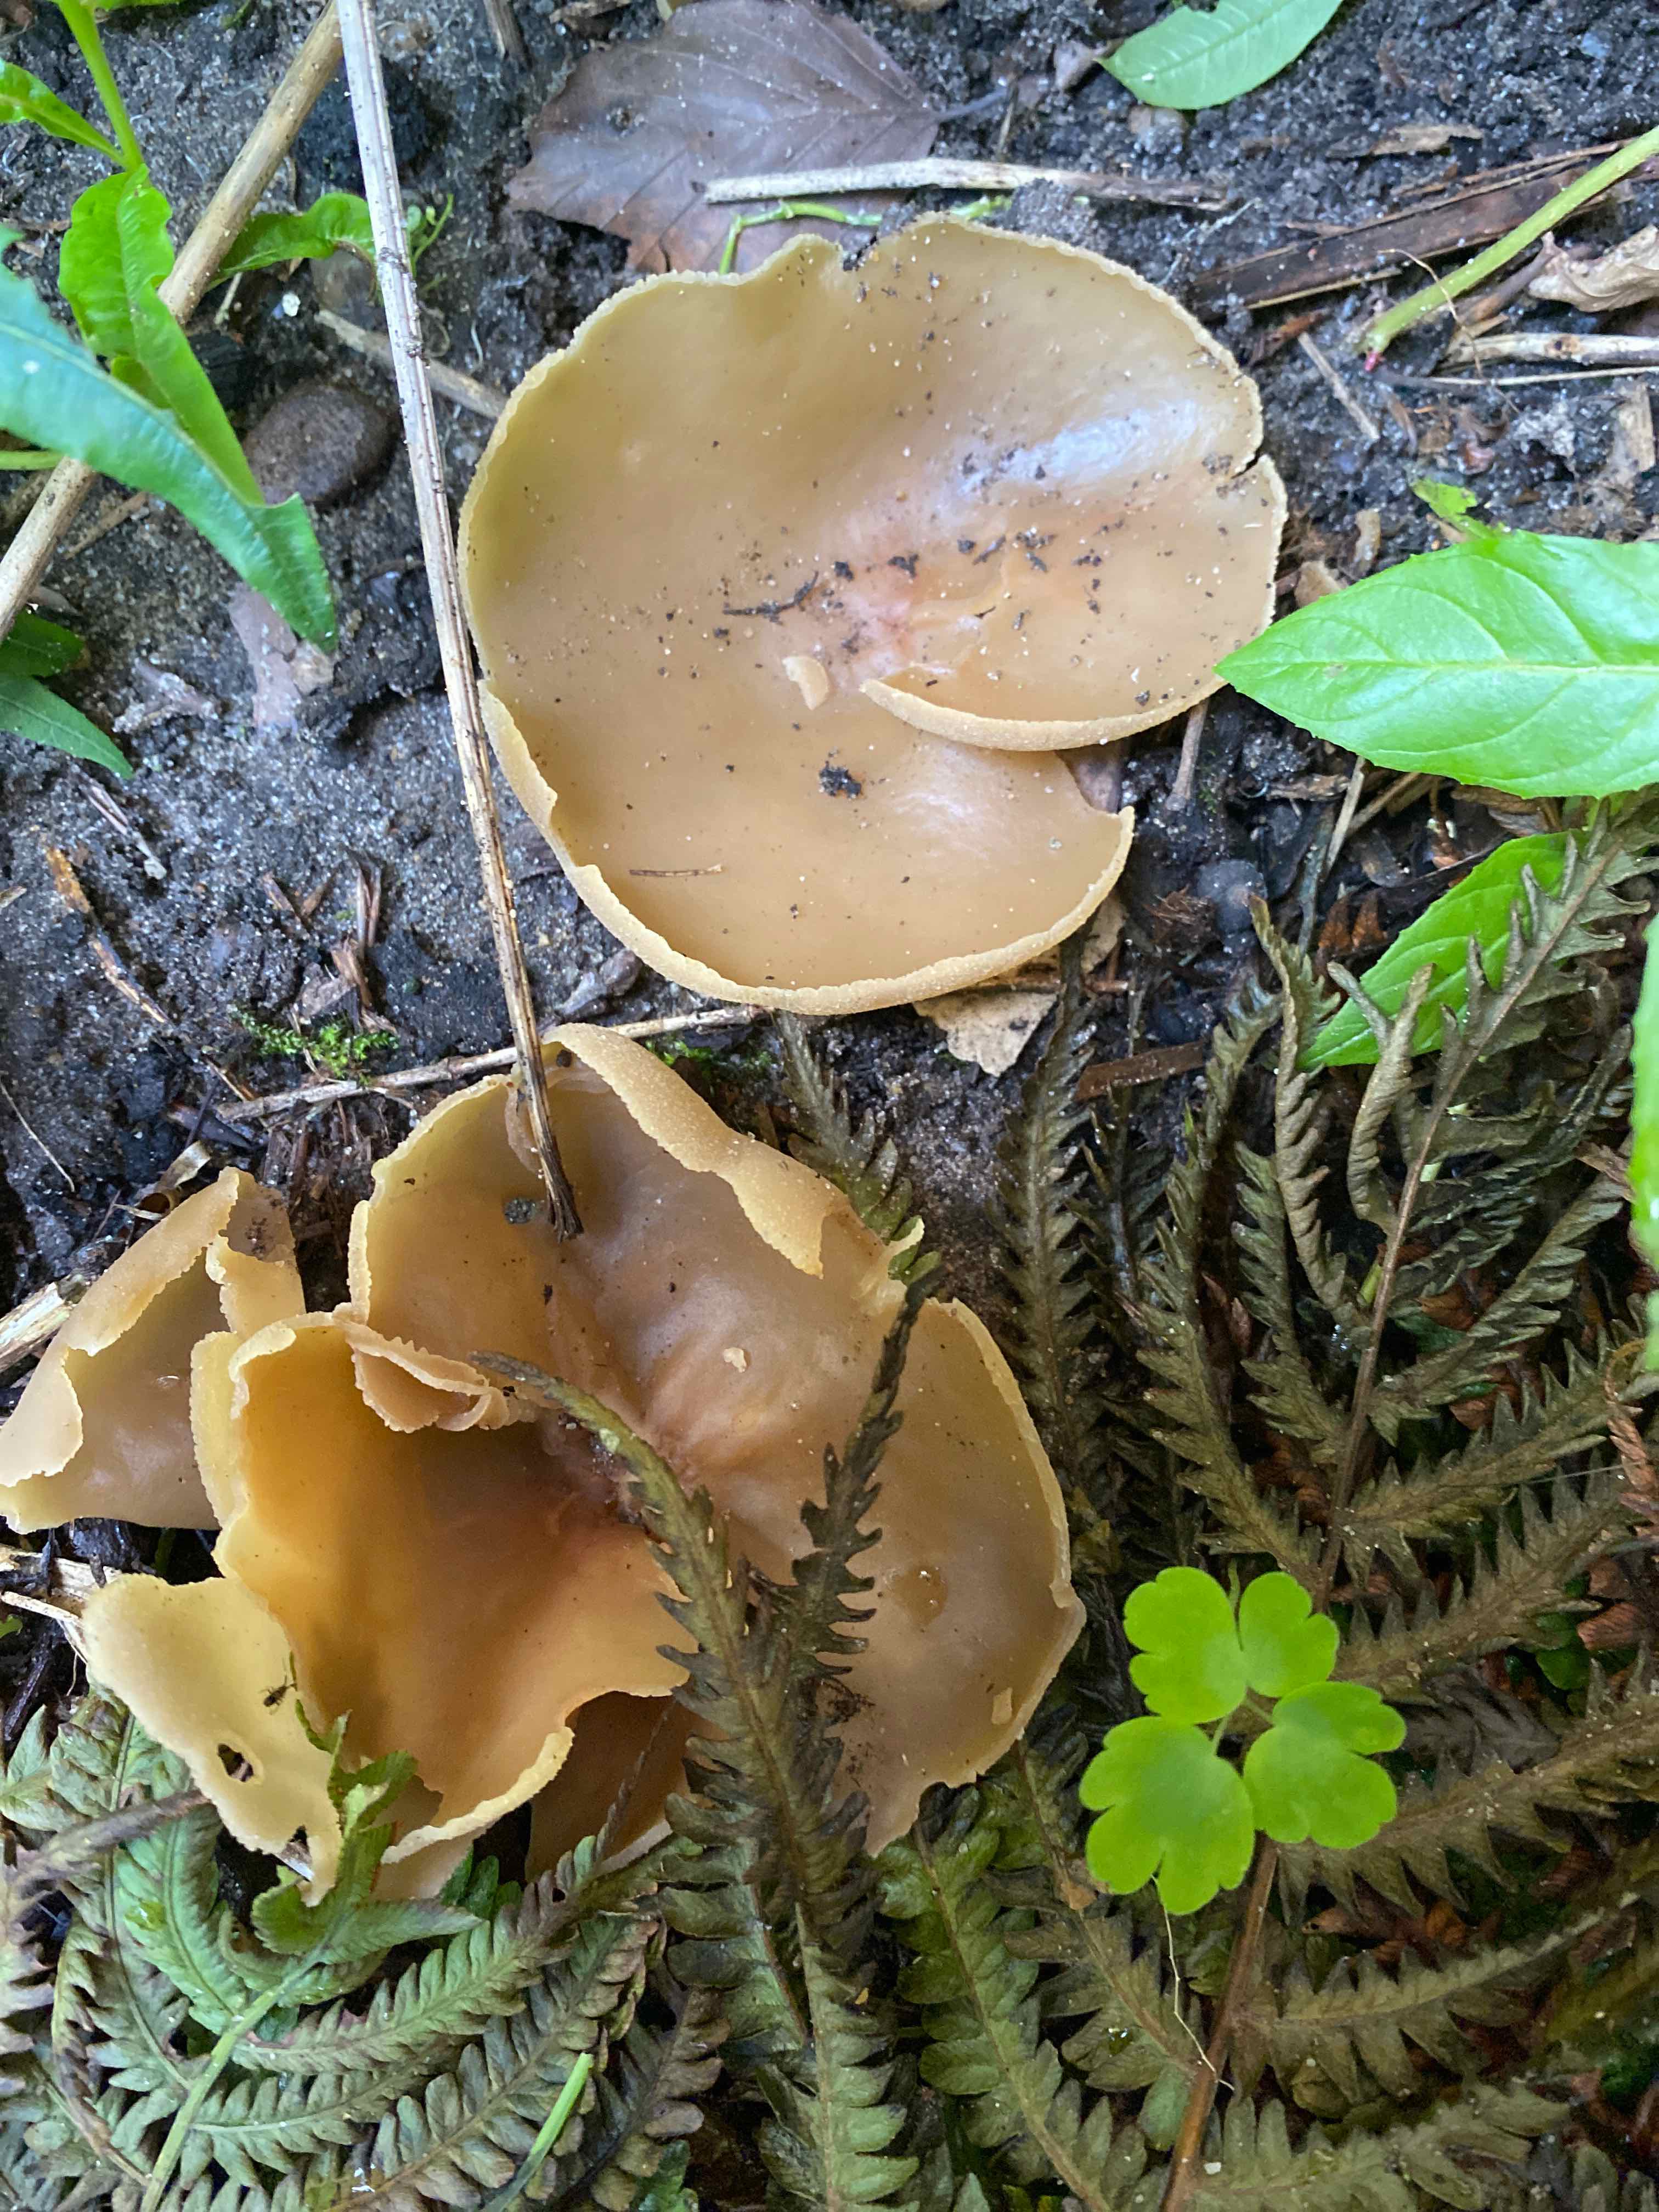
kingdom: Fungi
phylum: Ascomycota
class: Pezizomycetes
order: Pezizales
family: Pezizaceae
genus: Peziza
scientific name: Peziza
